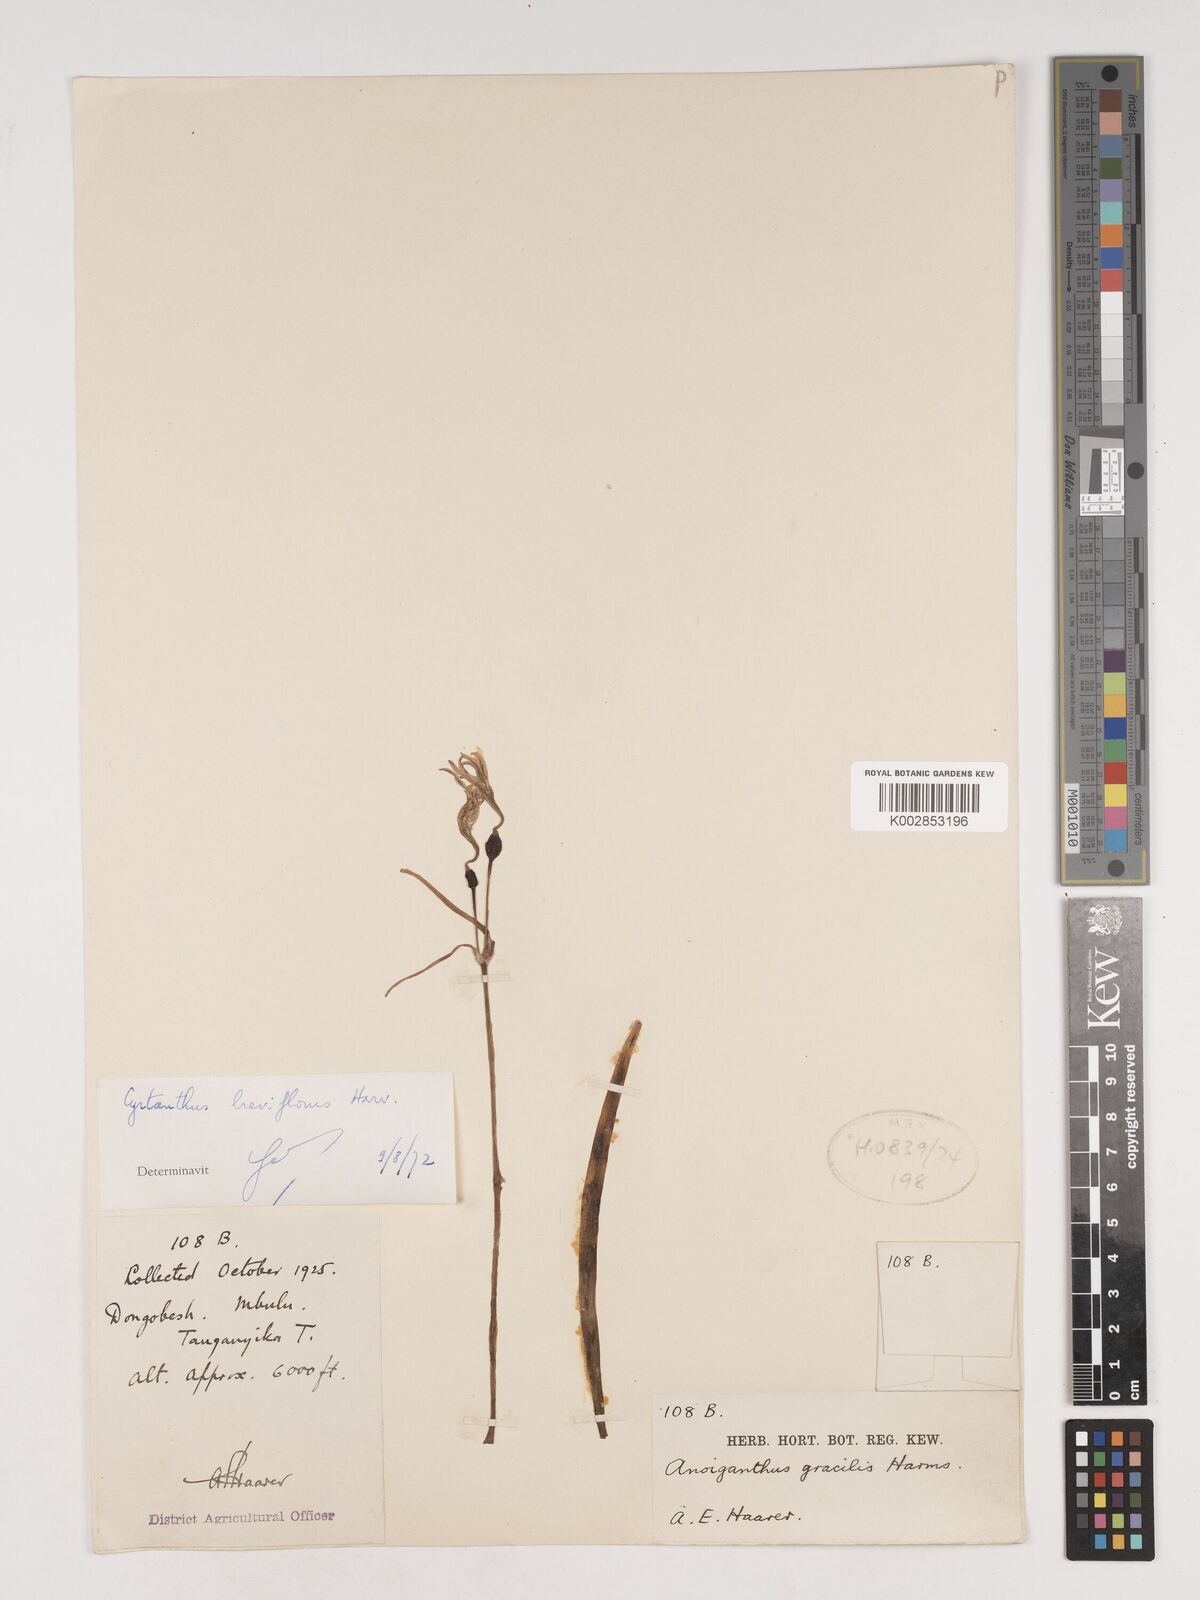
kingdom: Plantae
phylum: Tracheophyta
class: Liliopsida
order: Asparagales
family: Amaryllidaceae
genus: Cyrtanthus
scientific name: Cyrtanthus breviflorus
